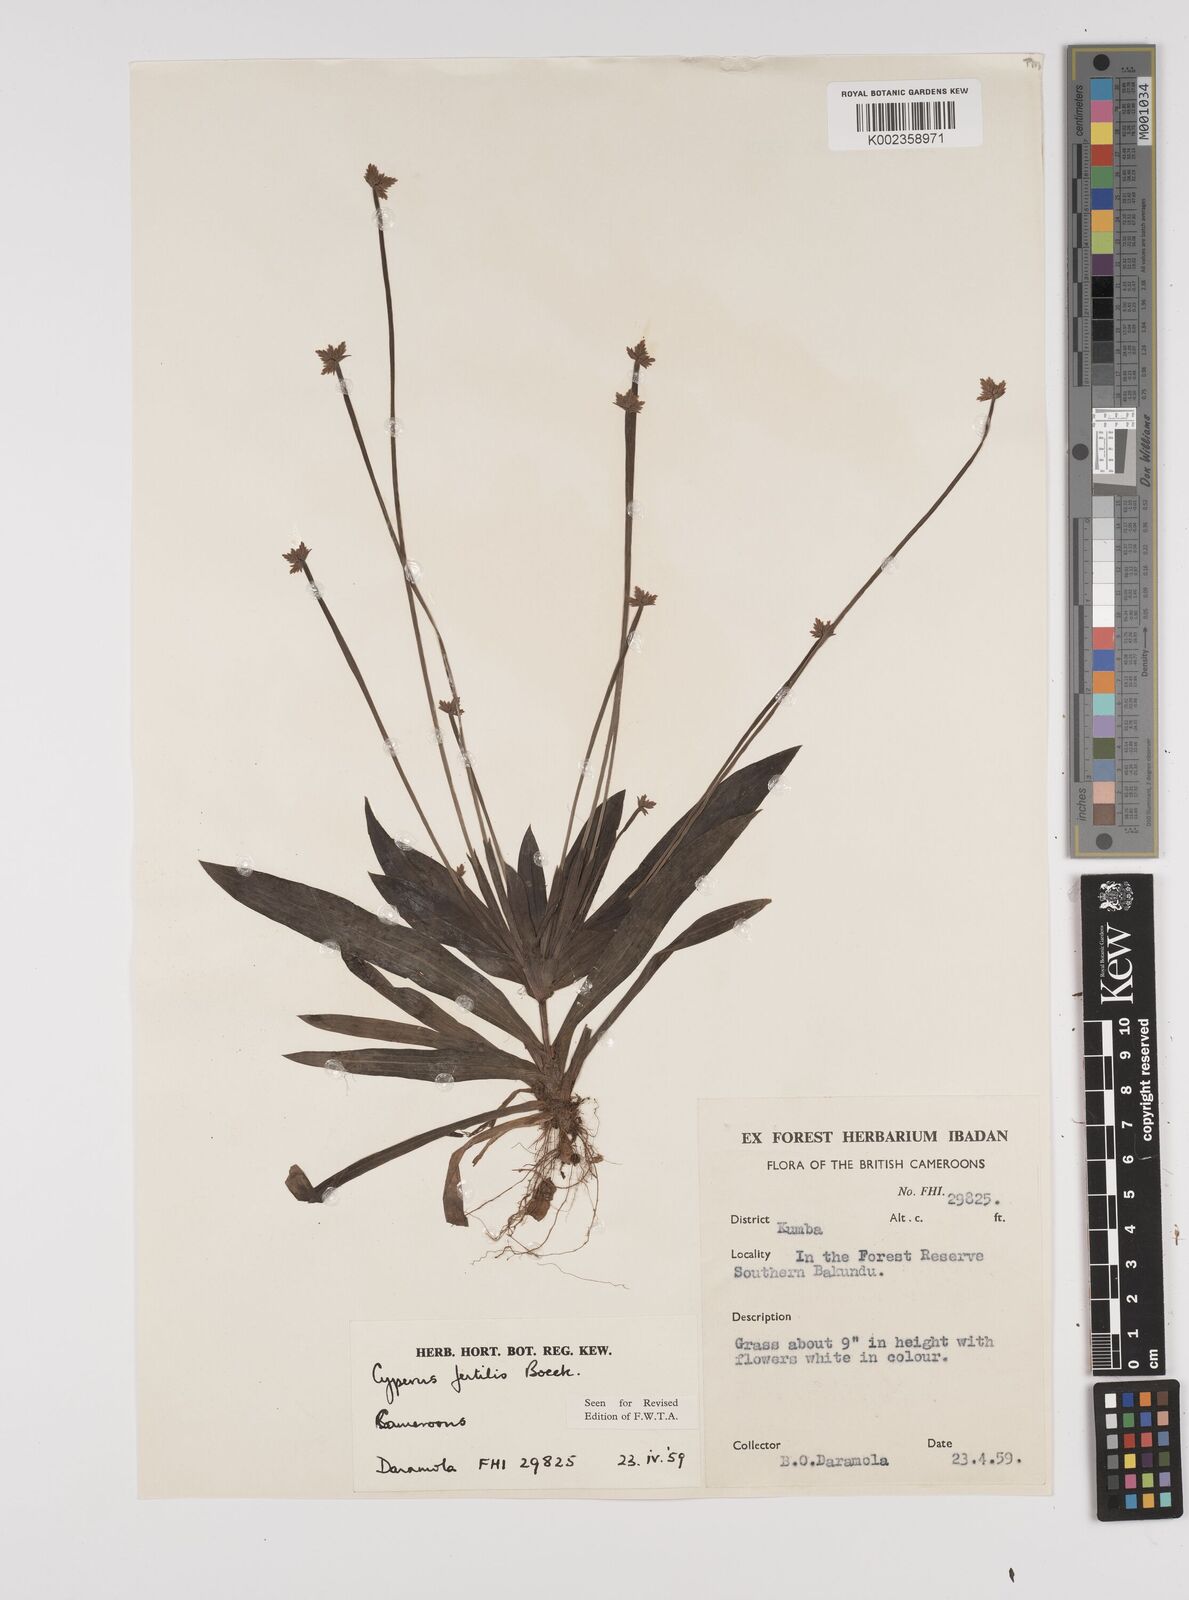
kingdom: Plantae
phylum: Tracheophyta
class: Liliopsida
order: Poales
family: Cyperaceae
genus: Cyperus
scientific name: Cyperus fertilis
